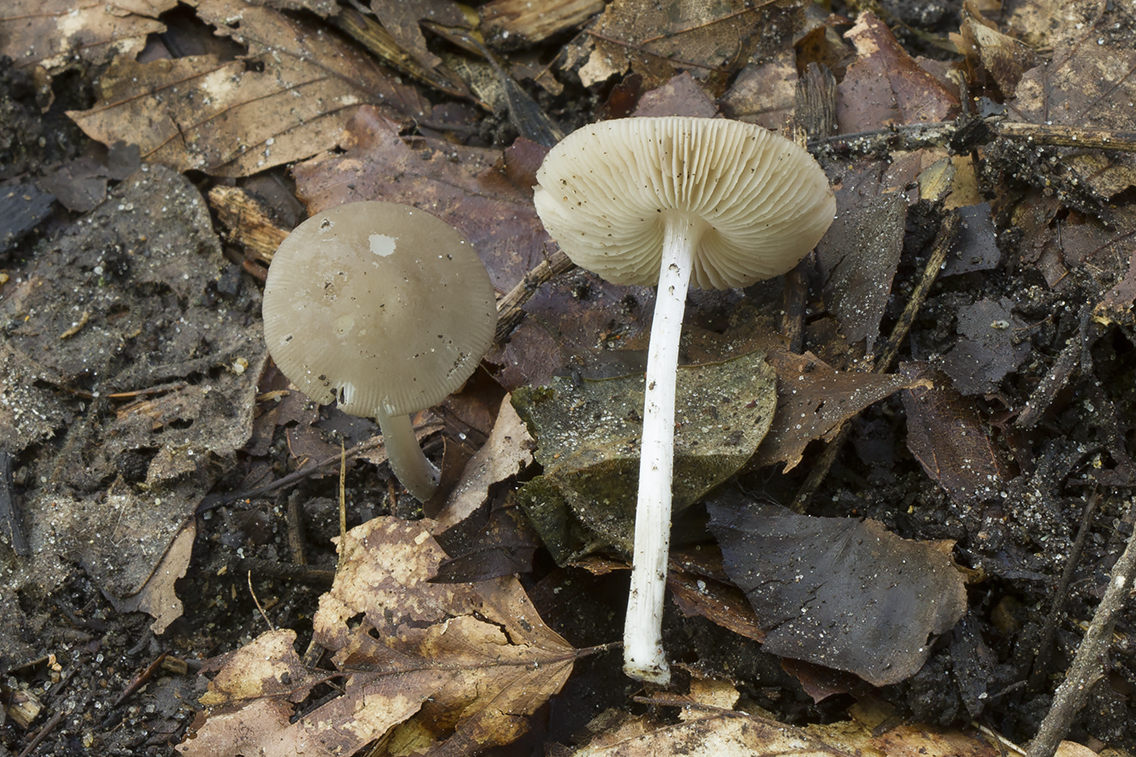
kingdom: Fungi
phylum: Basidiomycota
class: Agaricomycetes
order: Agaricales
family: Pluteaceae
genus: Pluteus
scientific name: Pluteus griseoluridus
